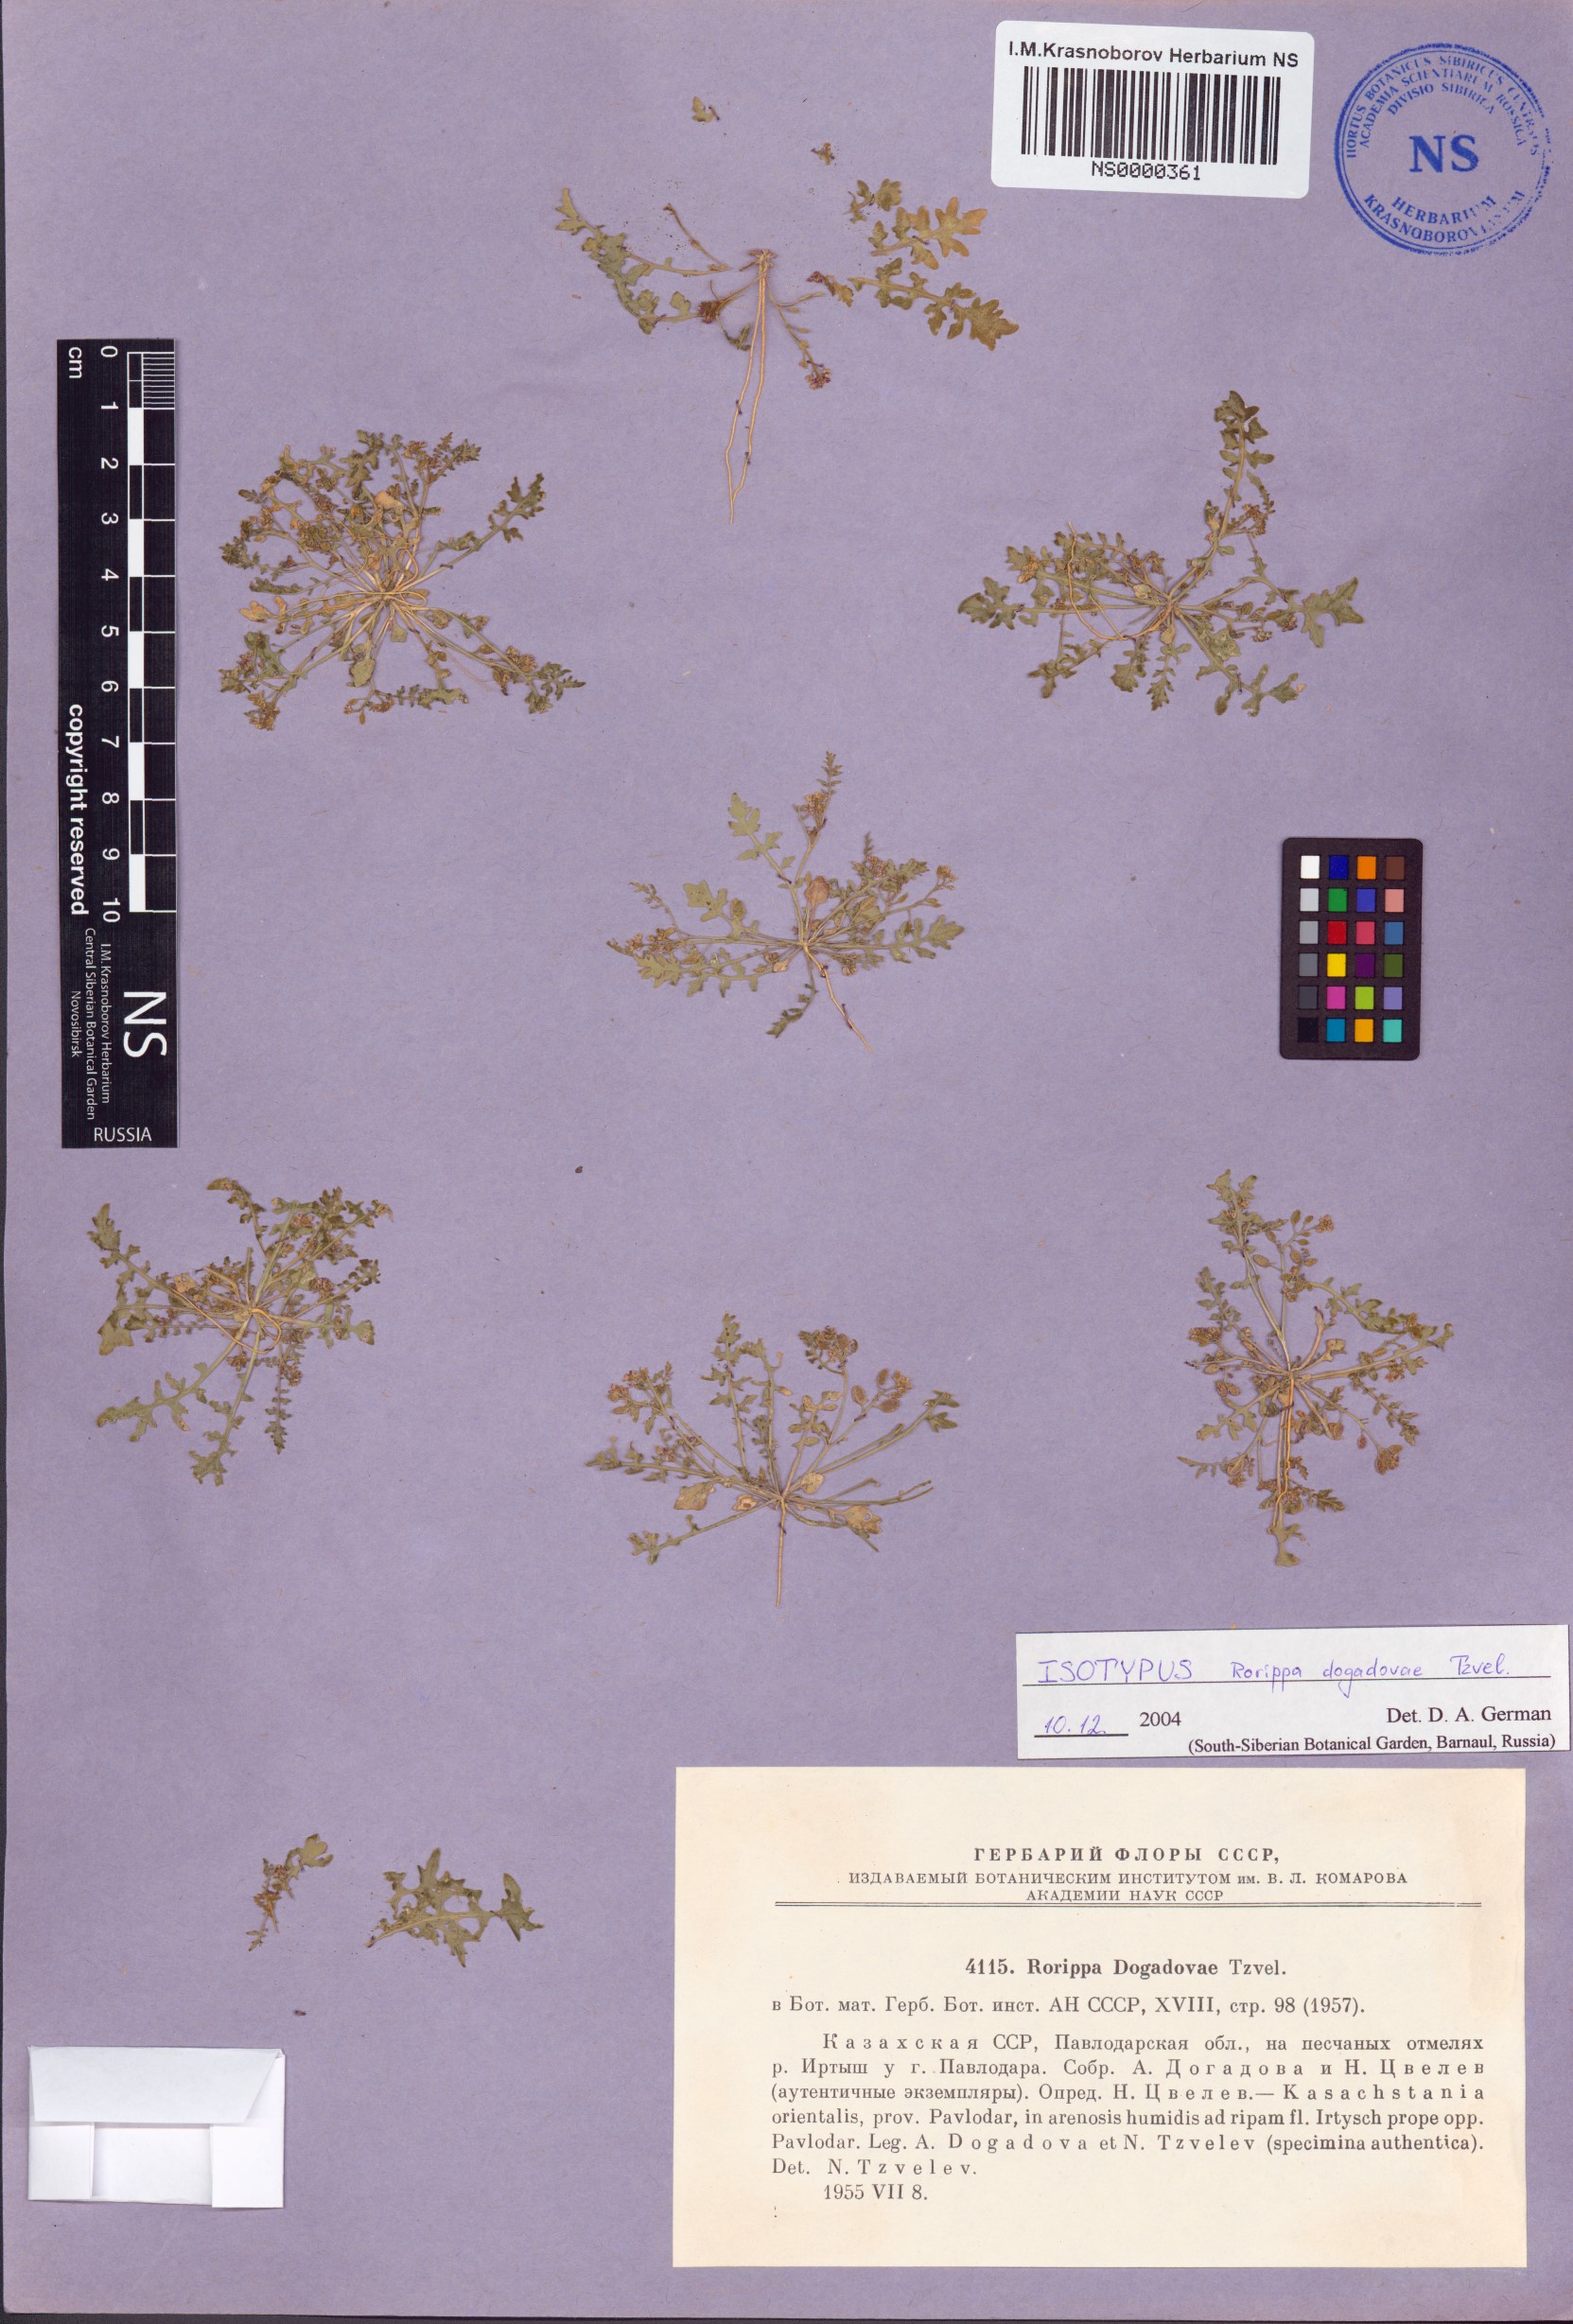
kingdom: Plantae
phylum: Tracheophyta
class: Magnoliopsida
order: Brassicales
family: Brassicaceae
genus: Rorippa
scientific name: Rorippa islandica
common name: Marsh cress
